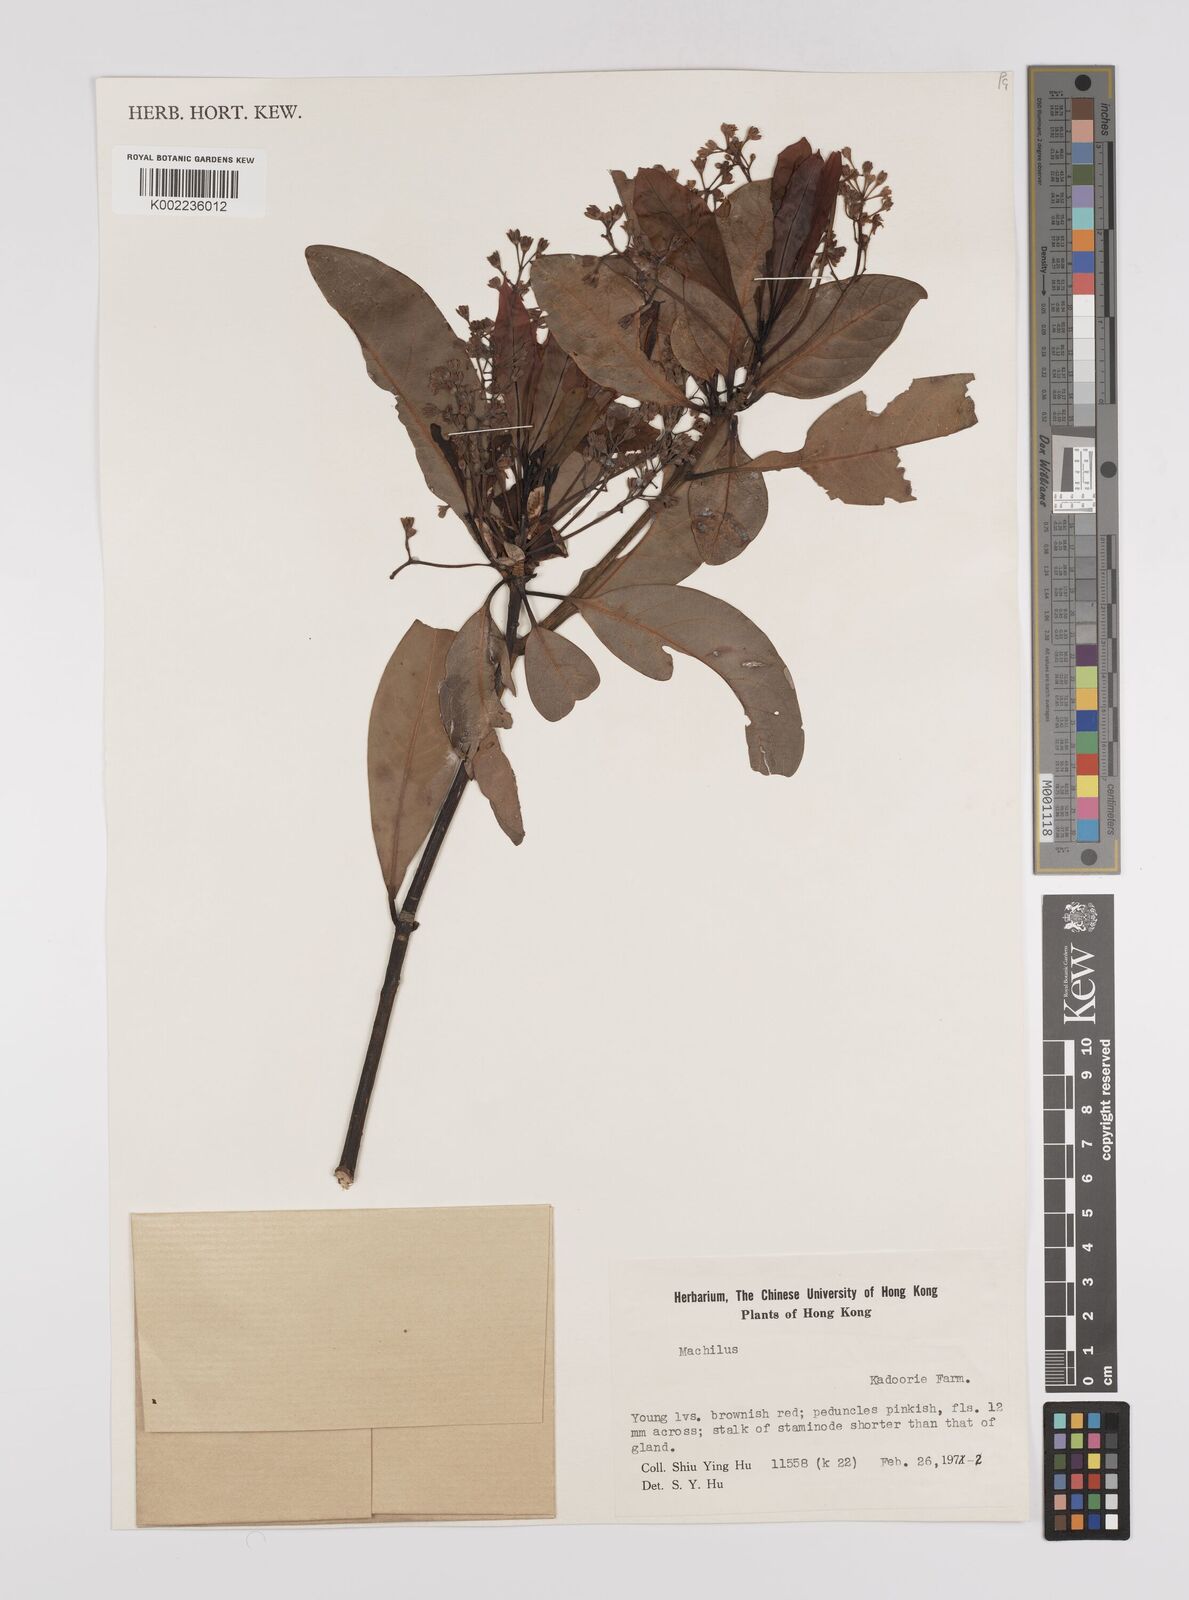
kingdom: Plantae
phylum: Tracheophyta
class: Magnoliopsida
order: Laurales
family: Lauraceae
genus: Persea
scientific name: Persea
